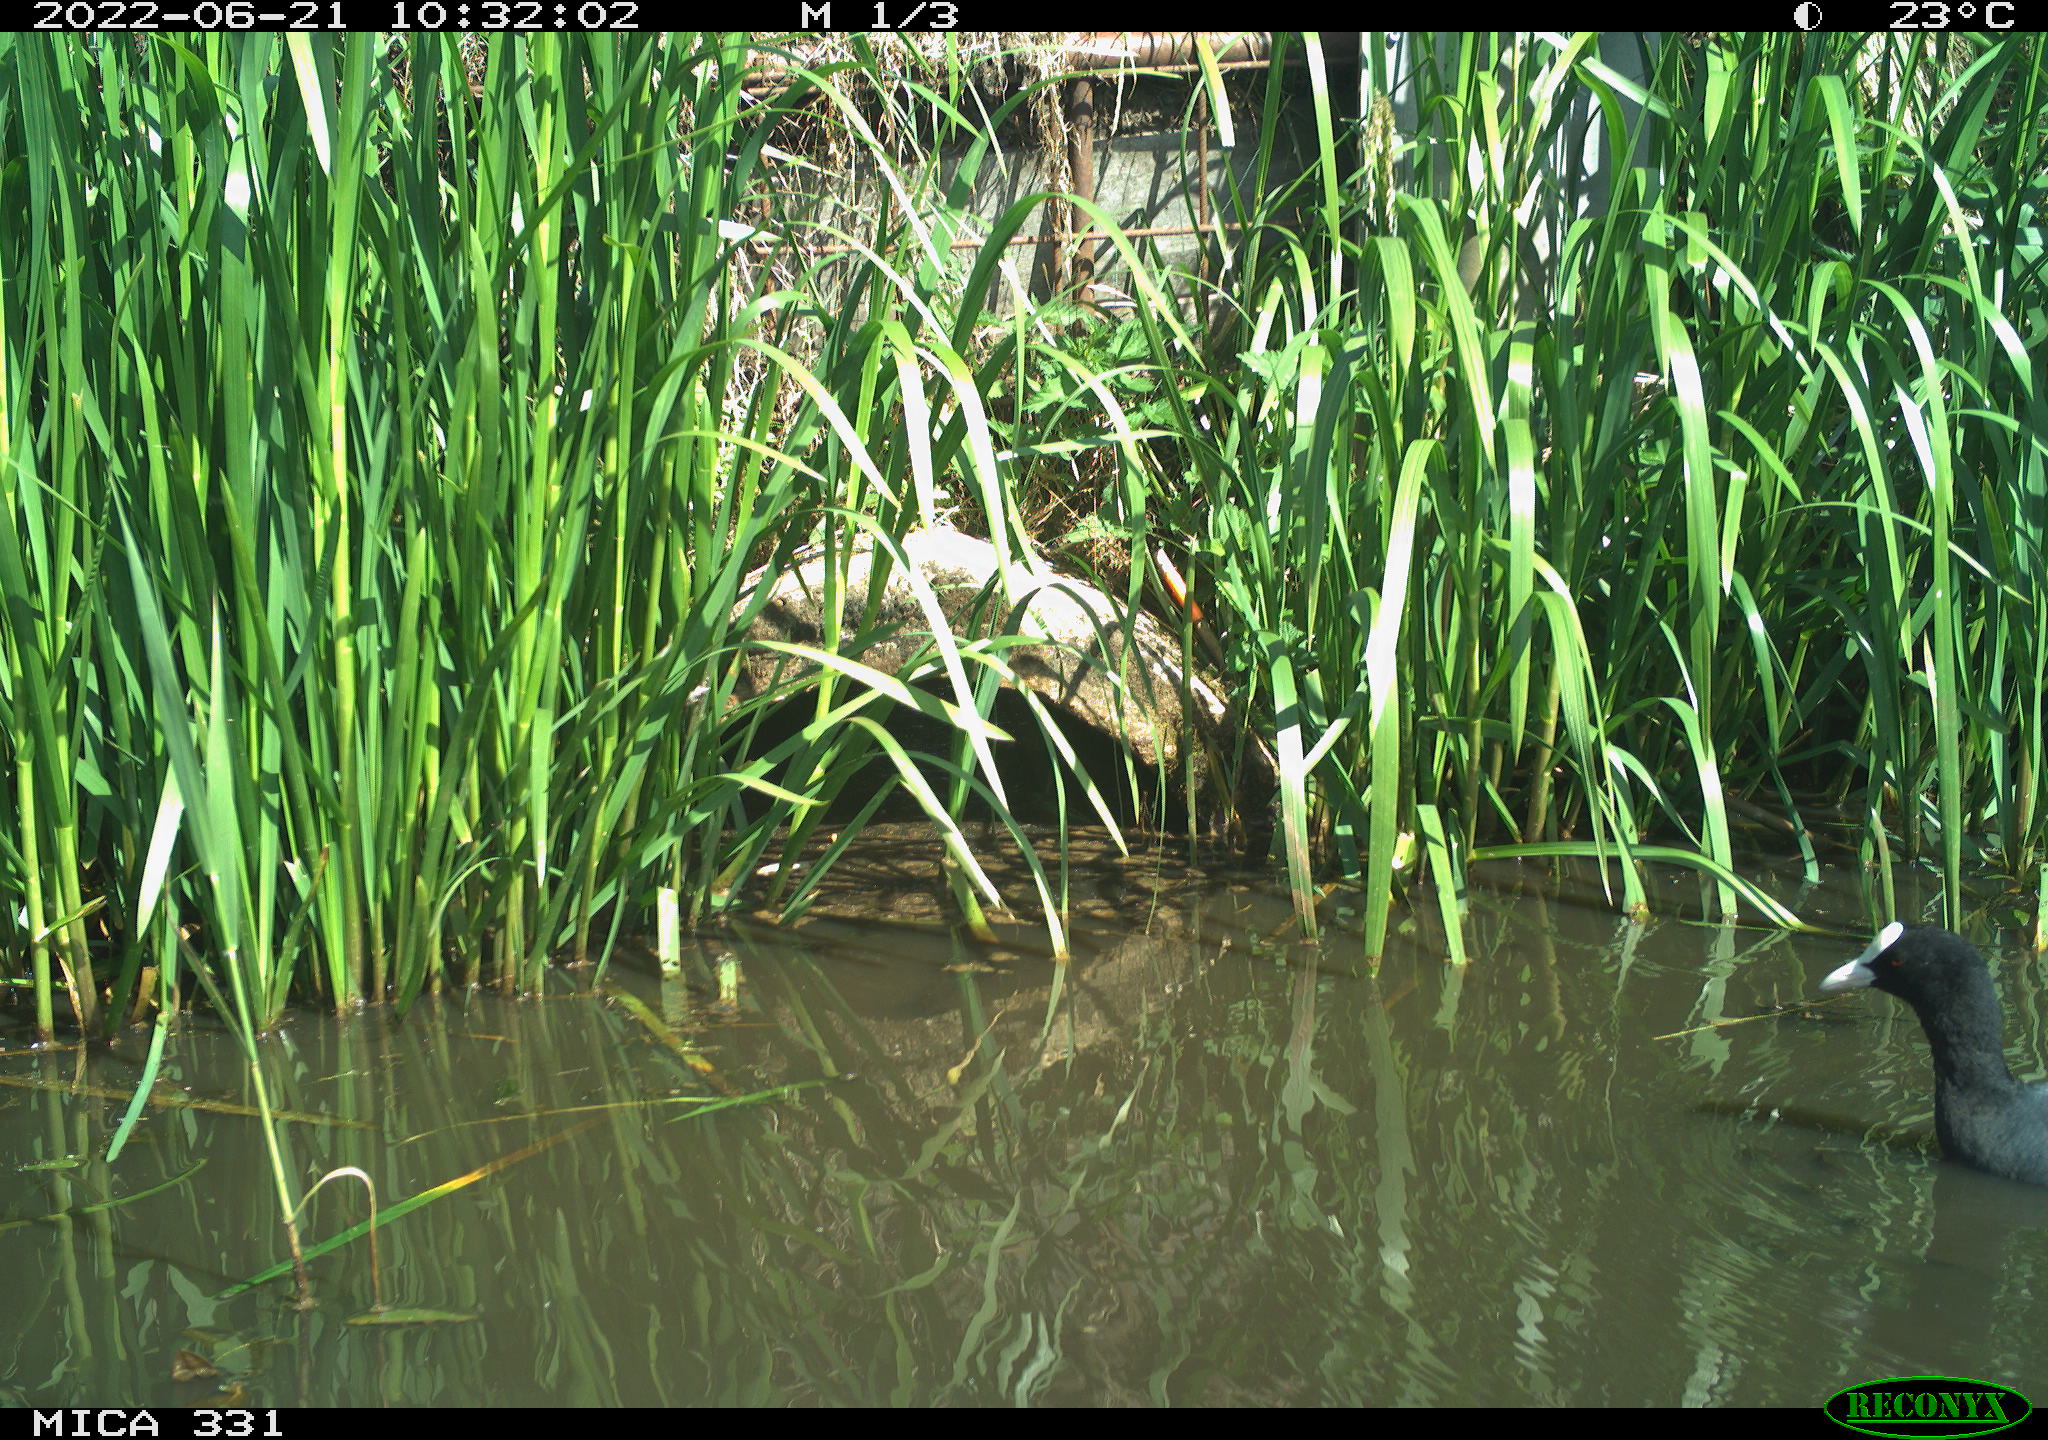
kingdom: Animalia
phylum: Chordata
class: Aves
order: Gruiformes
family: Rallidae
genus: Fulica
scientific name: Fulica atra
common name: Eurasian coot
